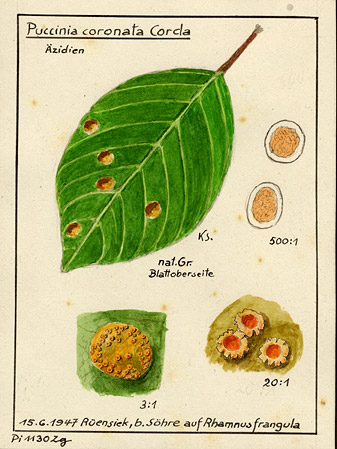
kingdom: Fungi
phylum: Basidiomycota
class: Pucciniomycetes
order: Pucciniales
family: Pucciniaceae
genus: Puccinia
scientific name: Puccinia coronata
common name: Crown rust
